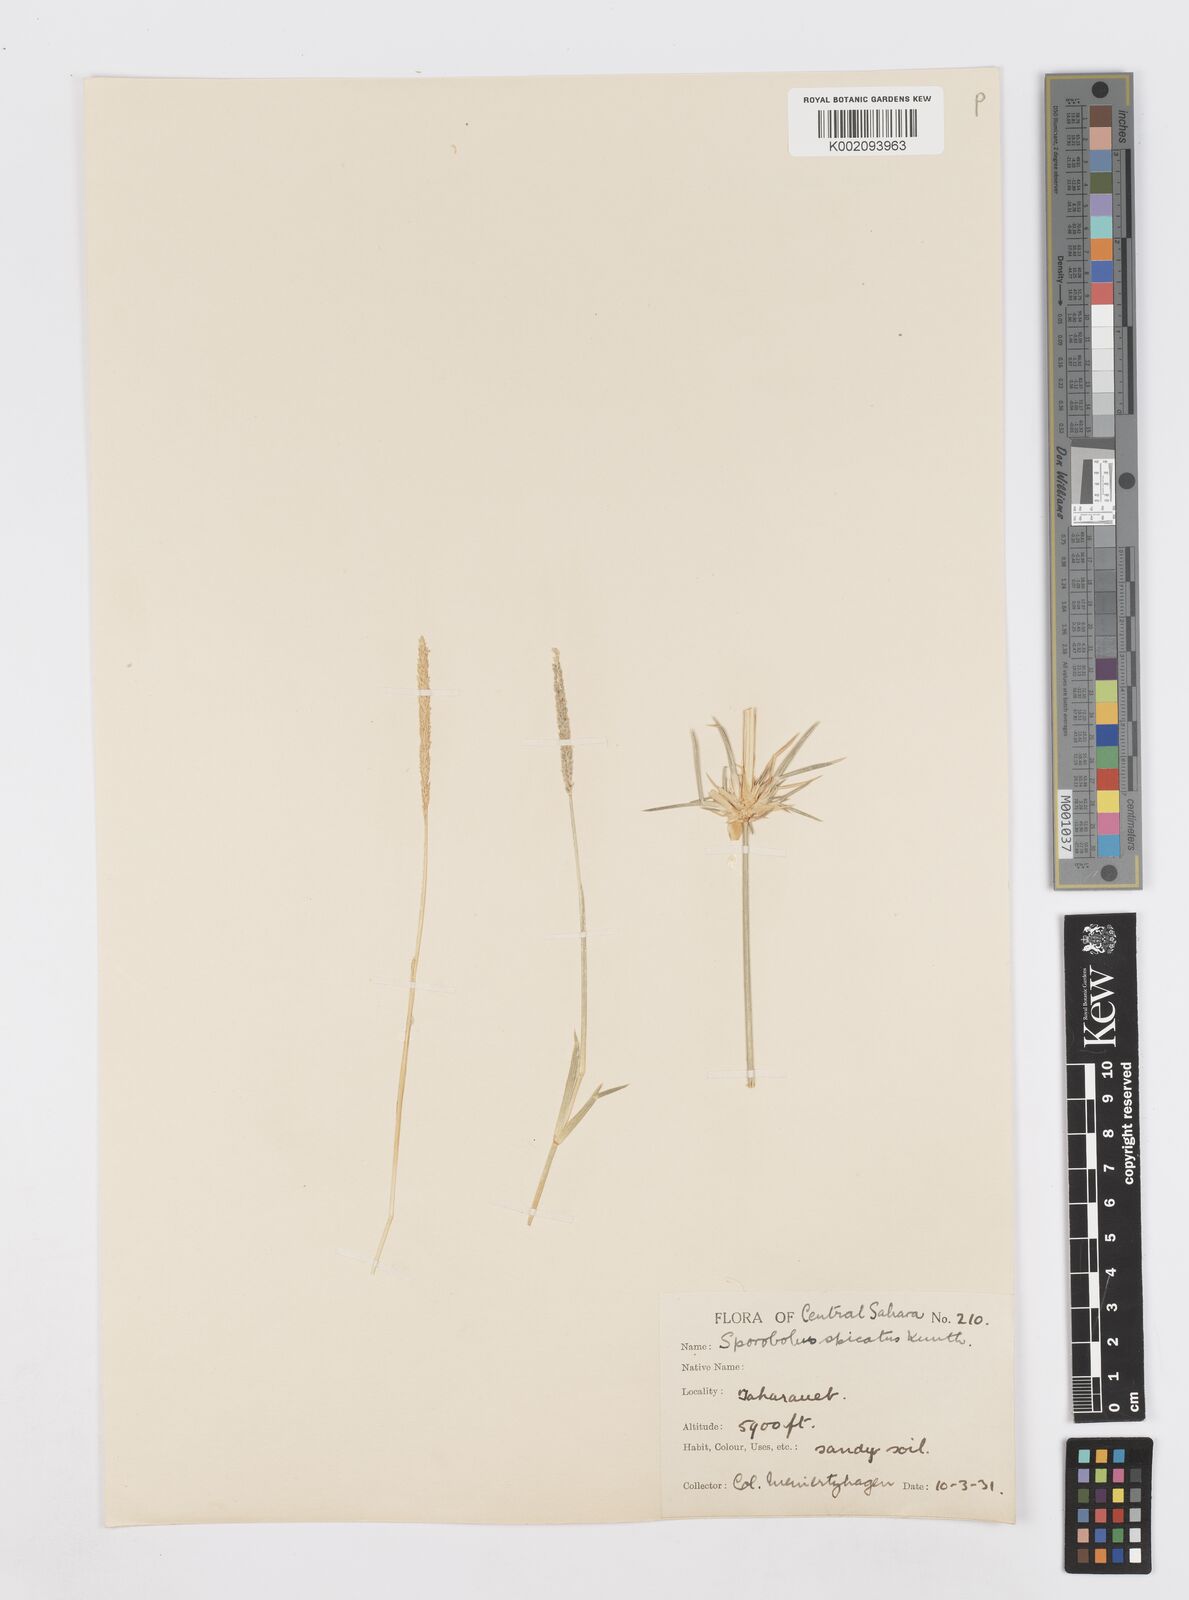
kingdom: Plantae
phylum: Tracheophyta
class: Liliopsida
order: Poales
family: Poaceae
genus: Sporobolus
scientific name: Sporobolus spicatus
